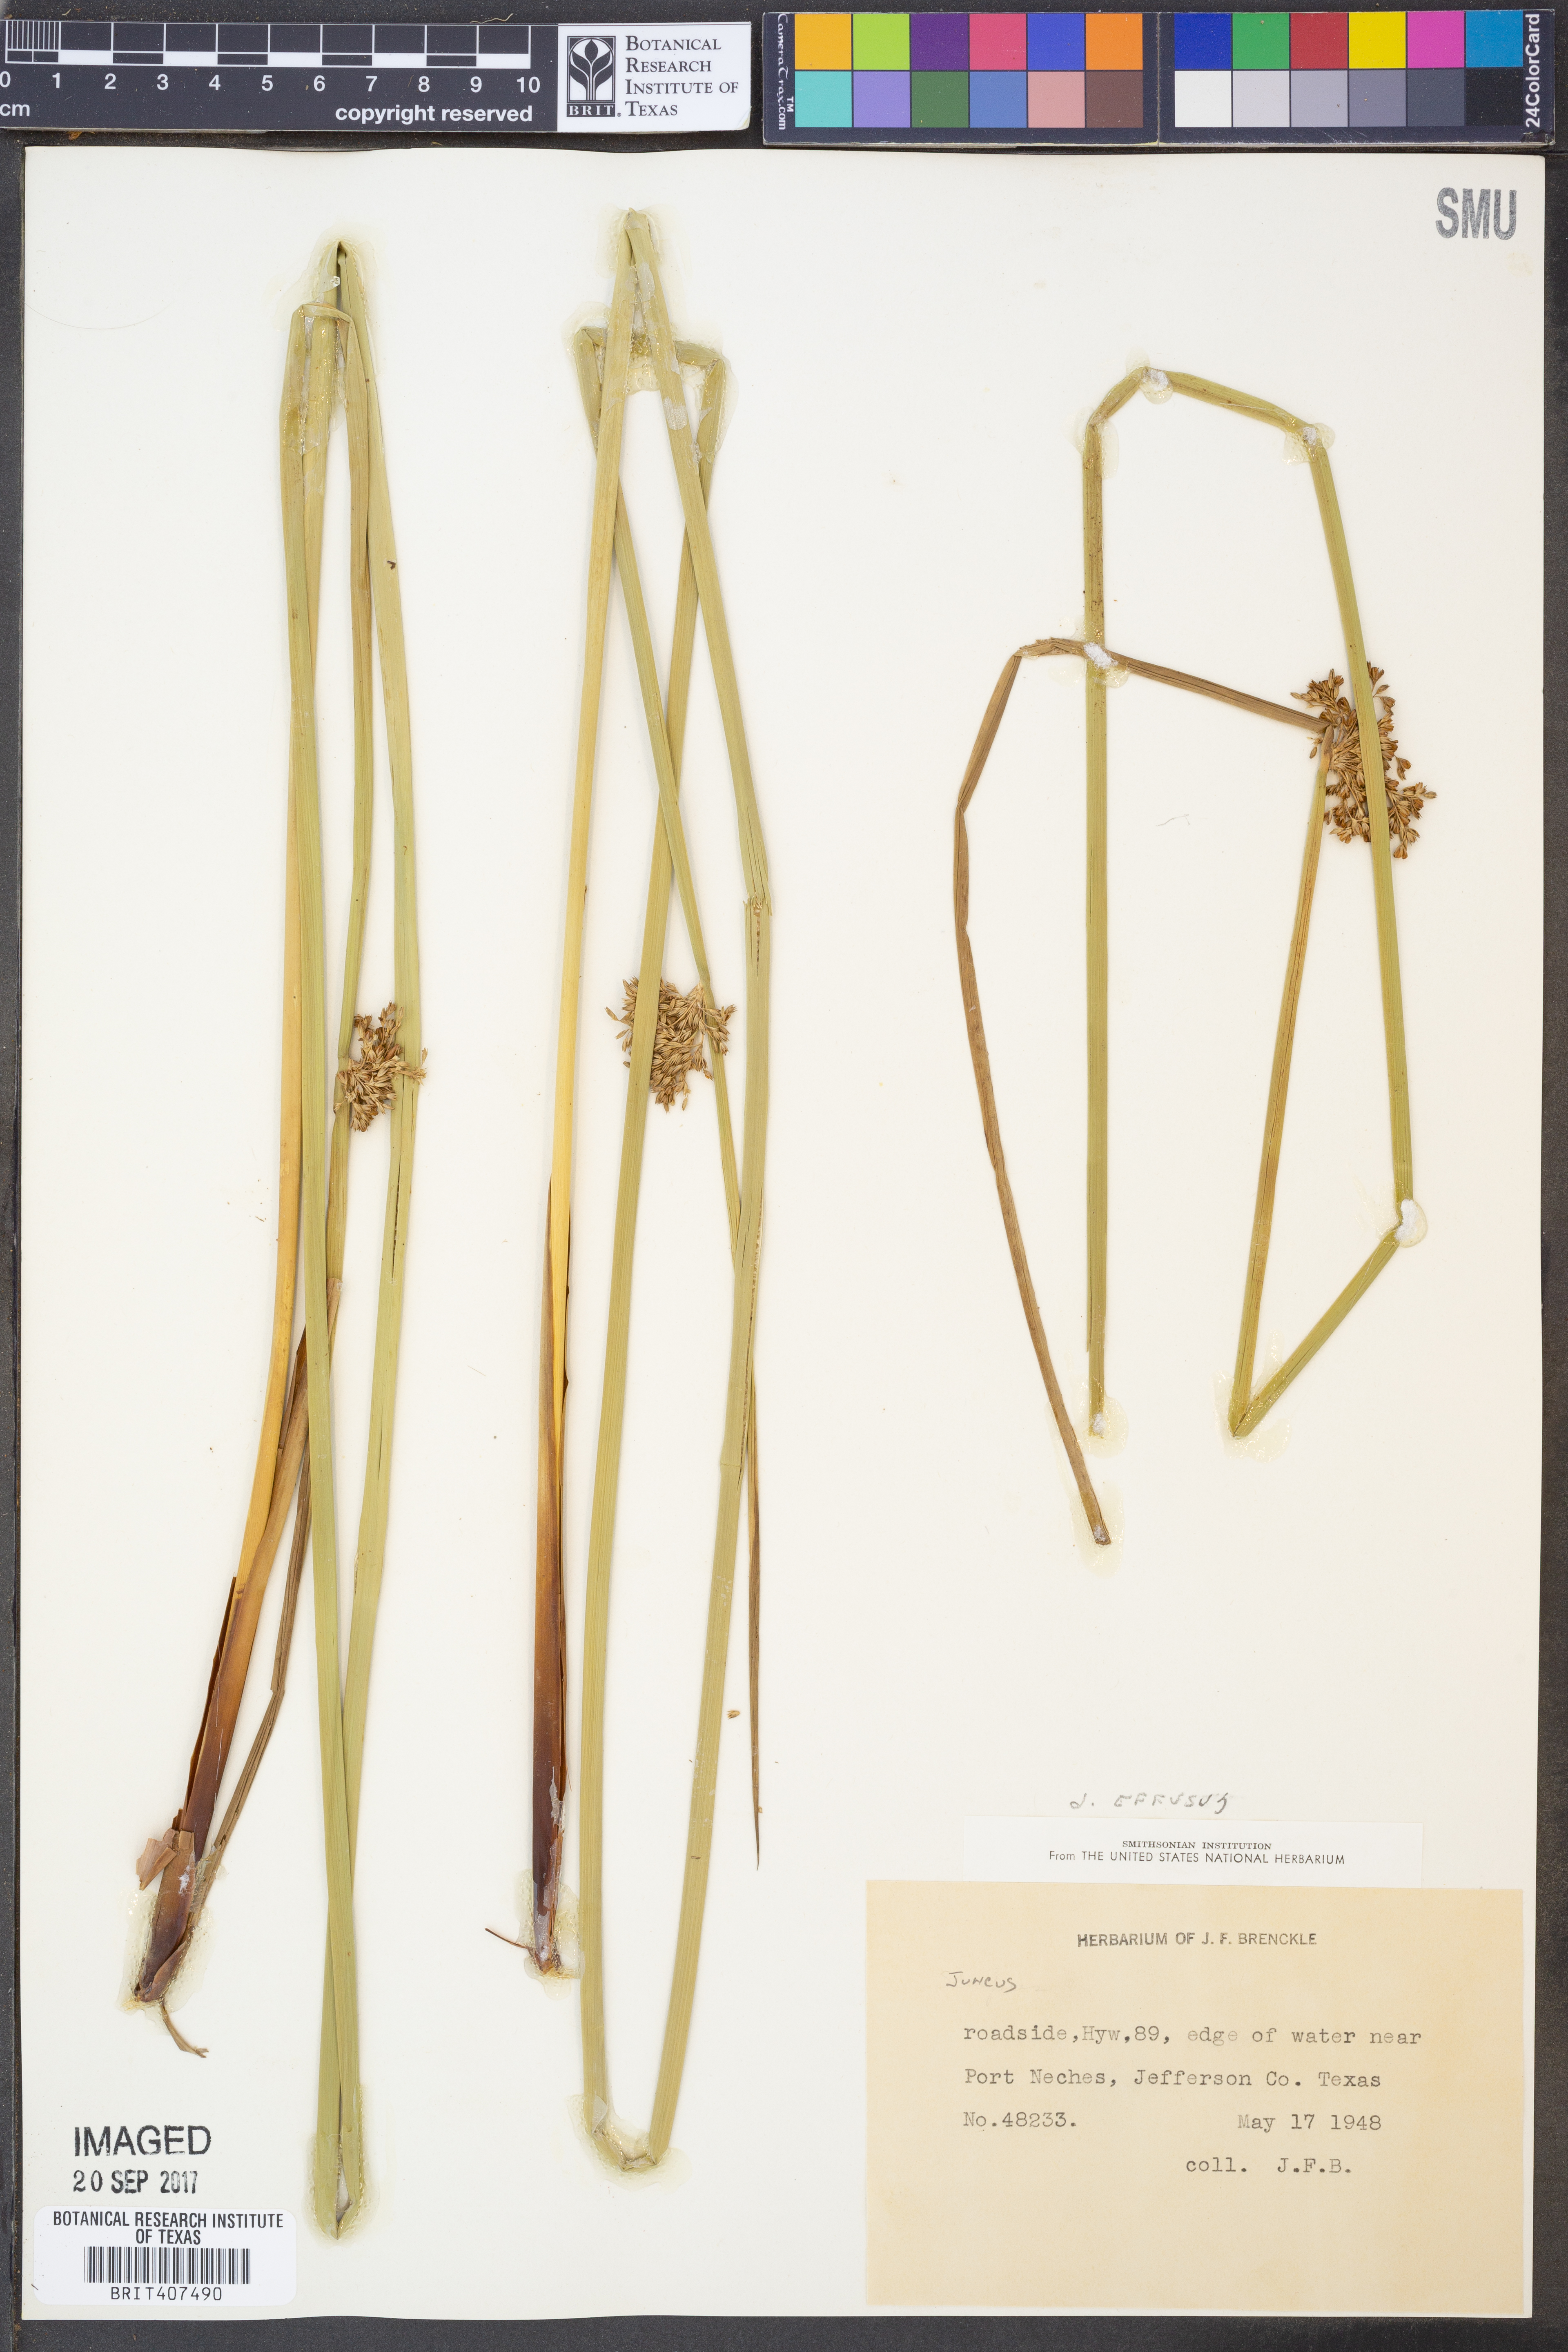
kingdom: Plantae
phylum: Tracheophyta
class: Liliopsida
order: Poales
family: Juncaceae
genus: Juncus
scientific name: Juncus effusus
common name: Soft rush
